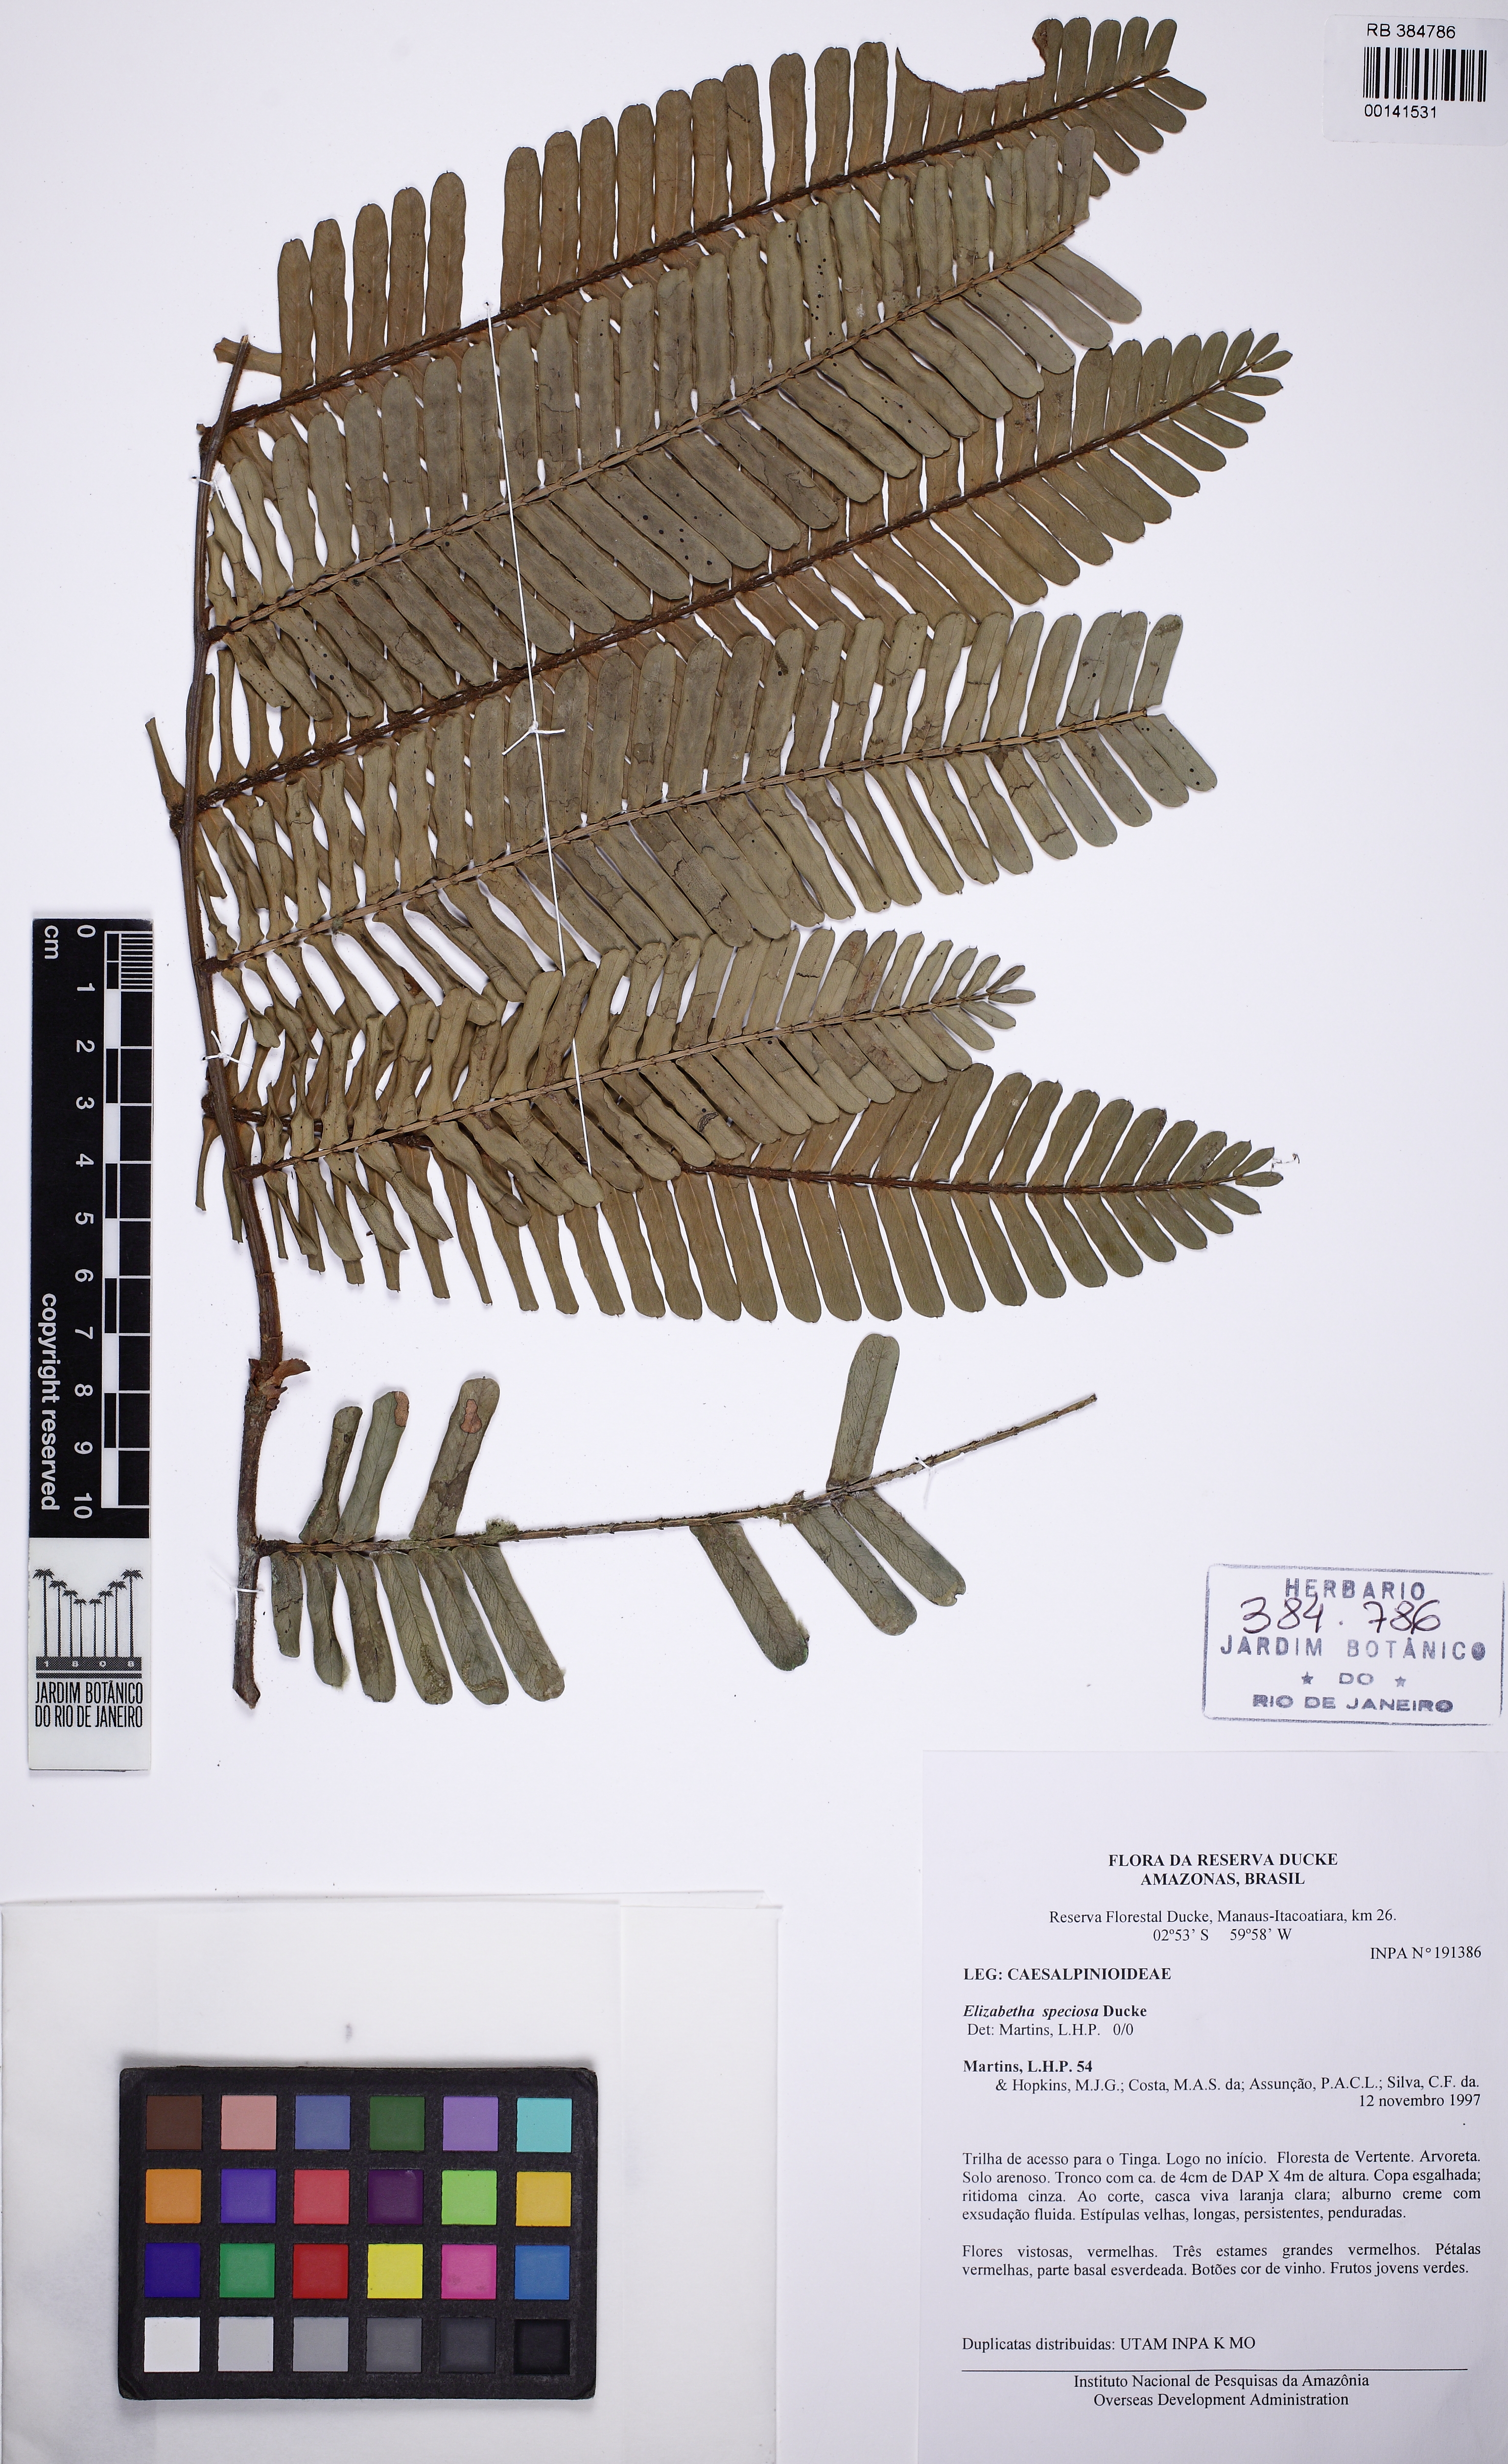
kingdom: Plantae
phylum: Tracheophyta
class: Magnoliopsida
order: Fabales
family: Fabaceae
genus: Paloue
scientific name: Paloue speciosa
